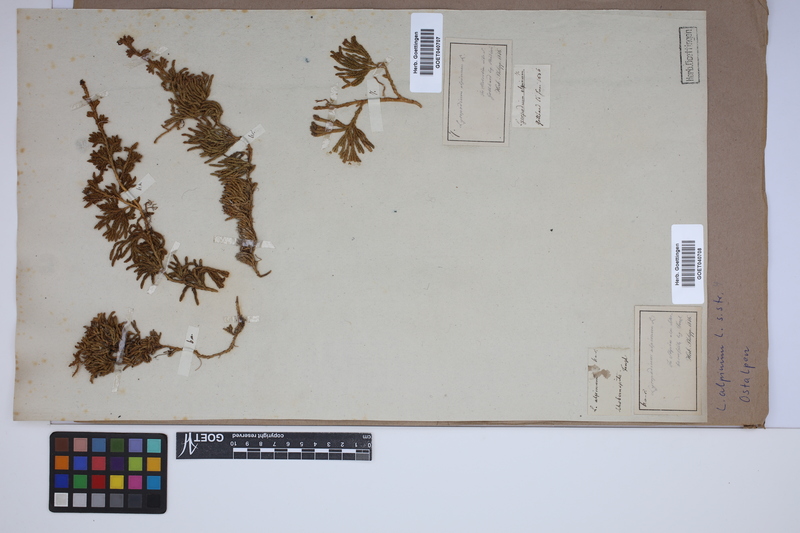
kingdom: Plantae
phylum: Tracheophyta
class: Lycopodiopsida
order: Lycopodiales
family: Lycopodiaceae
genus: Diphasiastrum
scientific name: Diphasiastrum alpinum
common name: Alpine clubmoss
